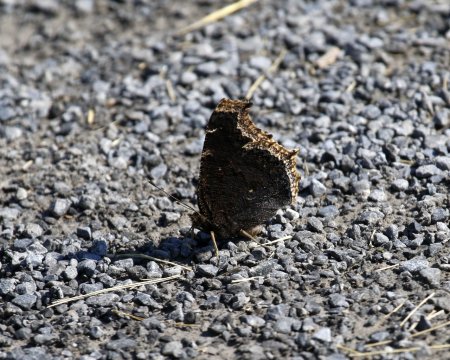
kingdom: Animalia
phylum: Arthropoda
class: Insecta
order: Lepidoptera
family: Nymphalidae
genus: Nymphalis
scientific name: Nymphalis antiopa
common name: Mourning Cloak
